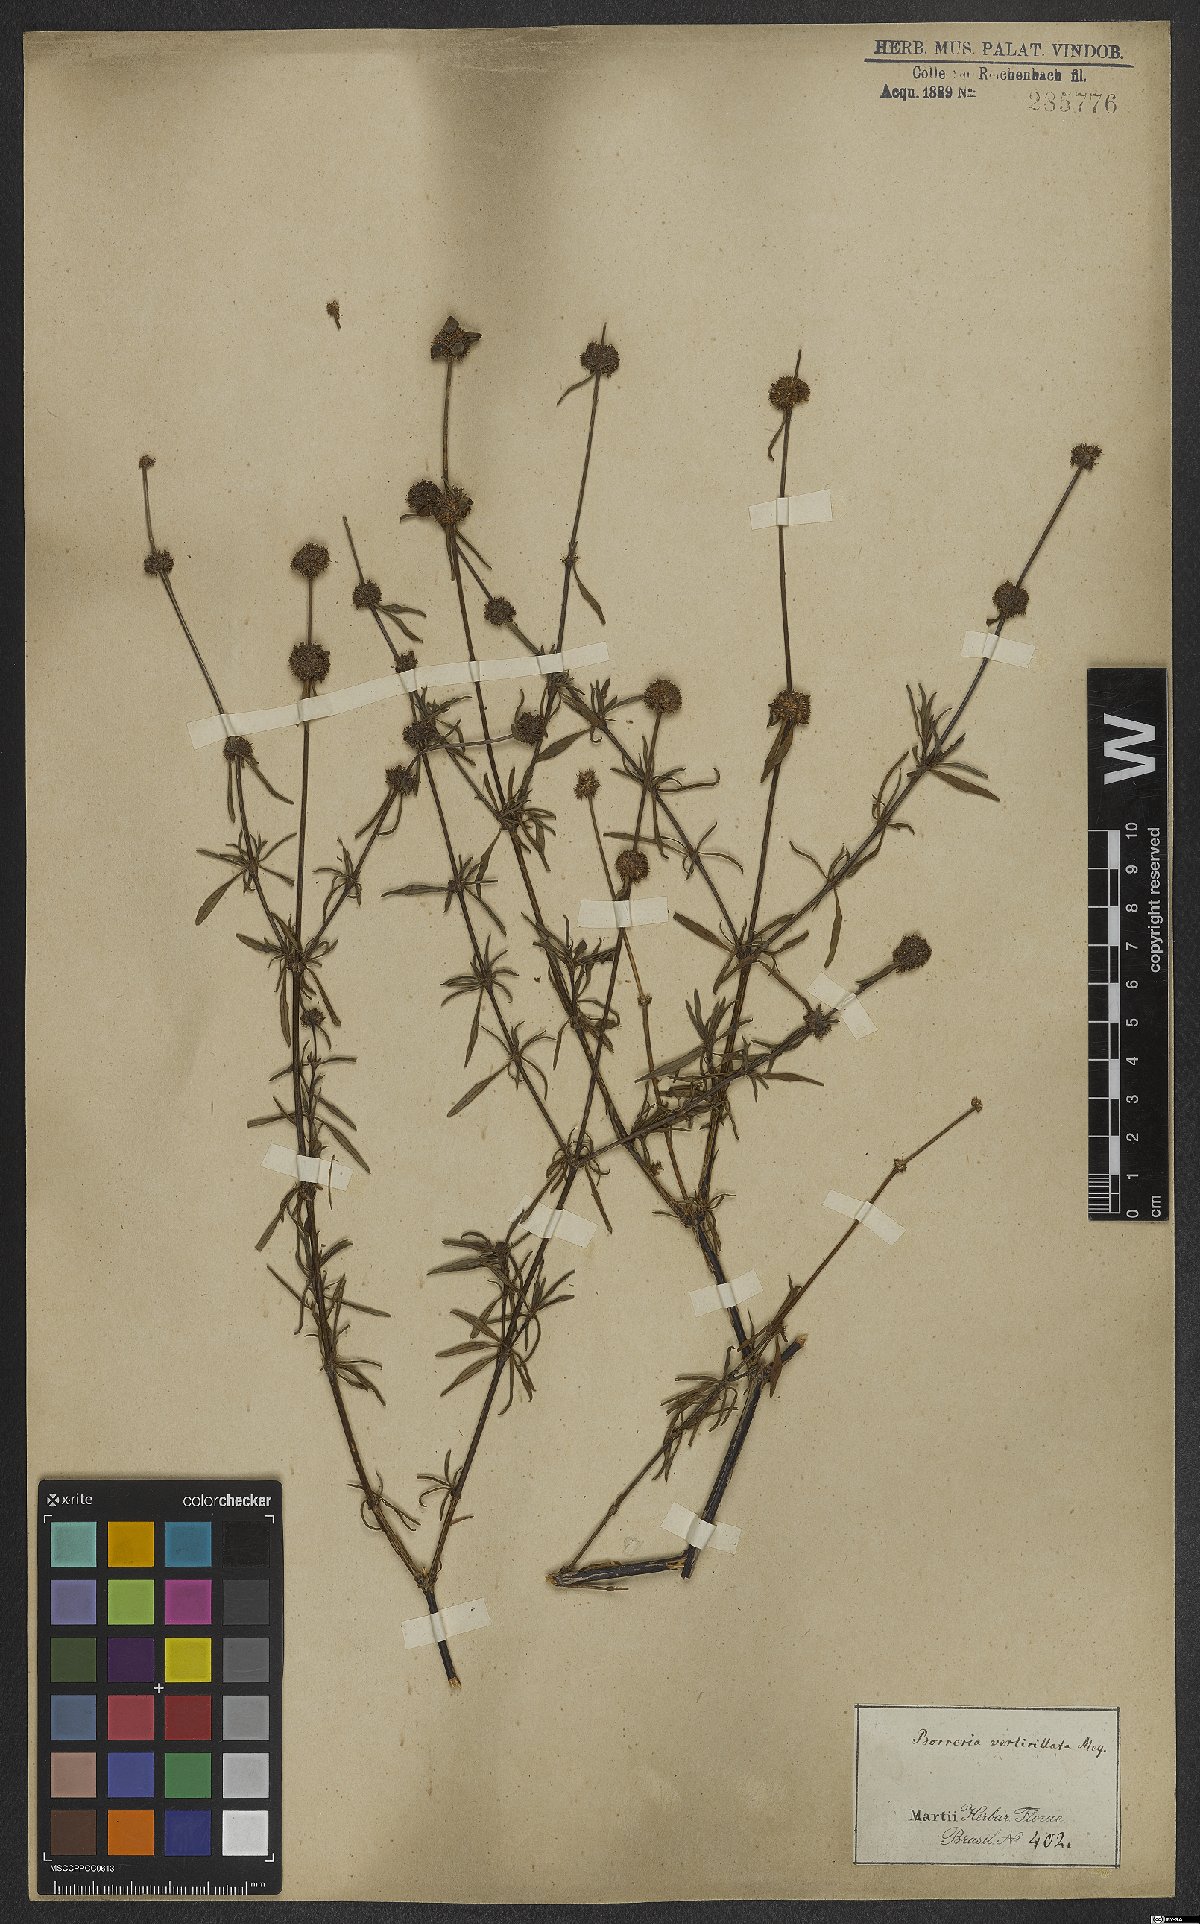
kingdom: Plantae
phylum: Tracheophyta
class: Magnoliopsida
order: Gentianales
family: Rubiaceae
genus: Spermacoce
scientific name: Spermacoce verticillata
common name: Shrubby false buttonweed
